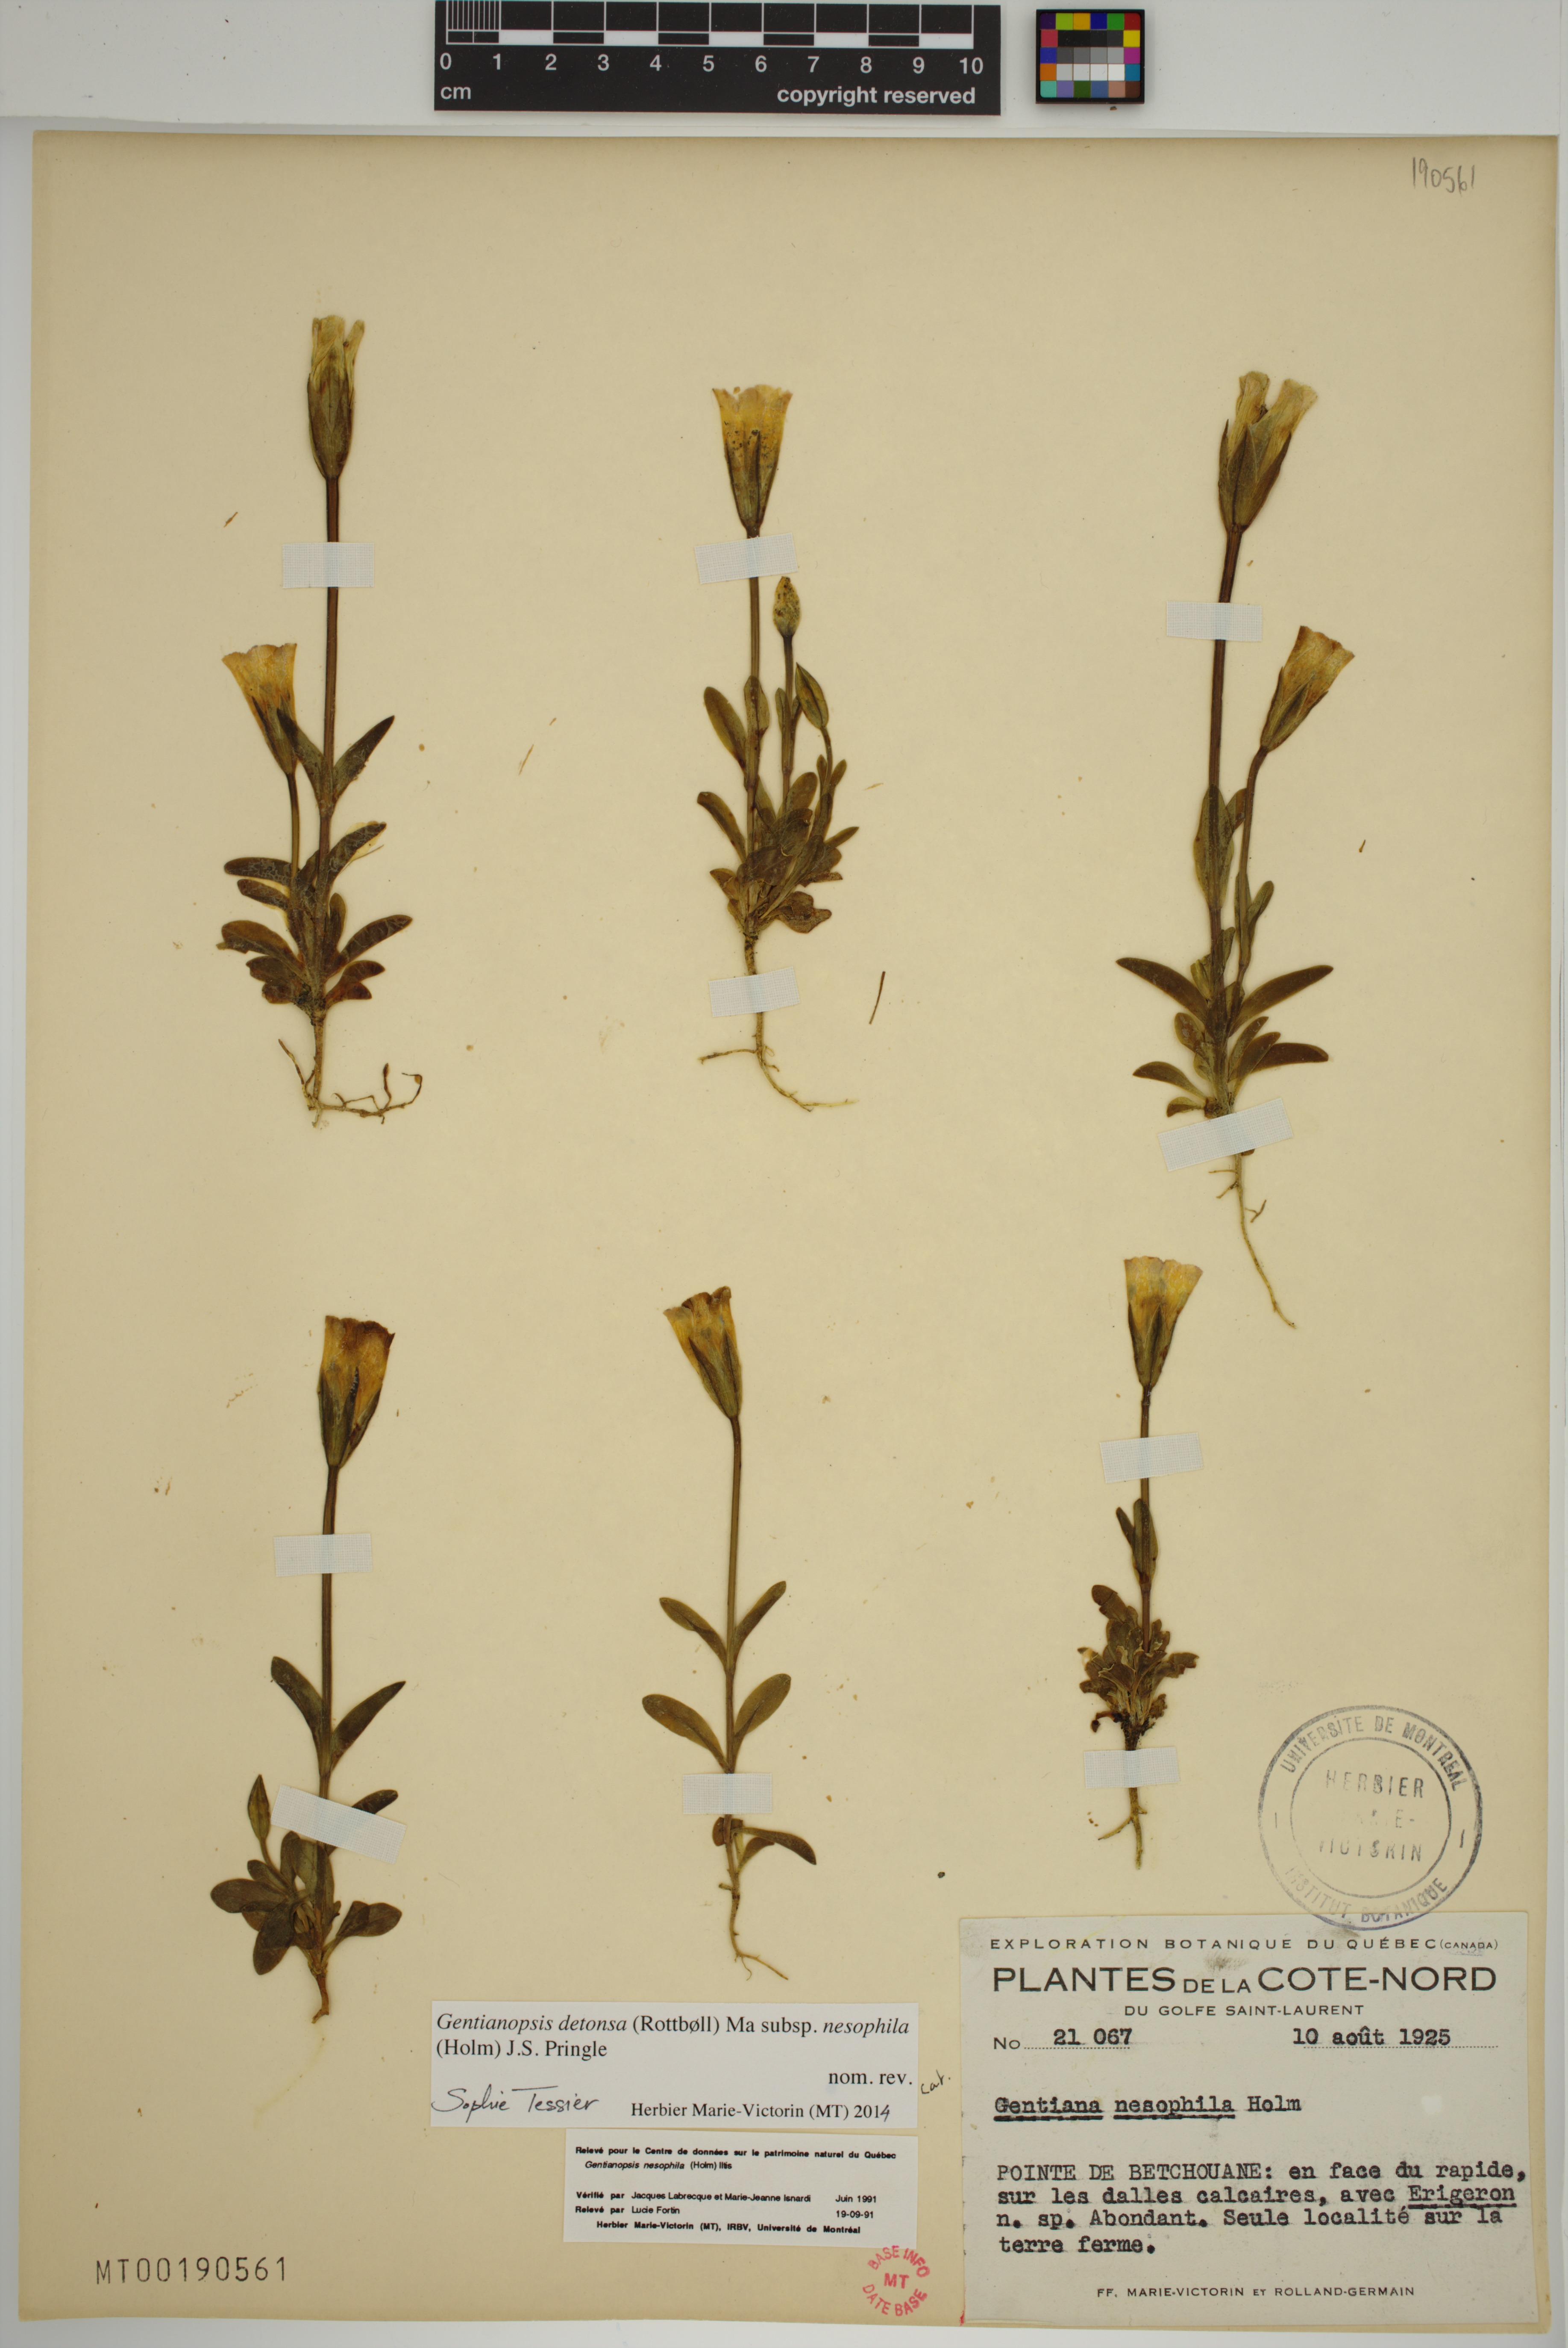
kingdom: Plantae
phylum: Tracheophyta
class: Magnoliopsida
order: Gentianales
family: Gentianaceae
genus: Gentianopsis
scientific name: Gentianopsis nesophila
